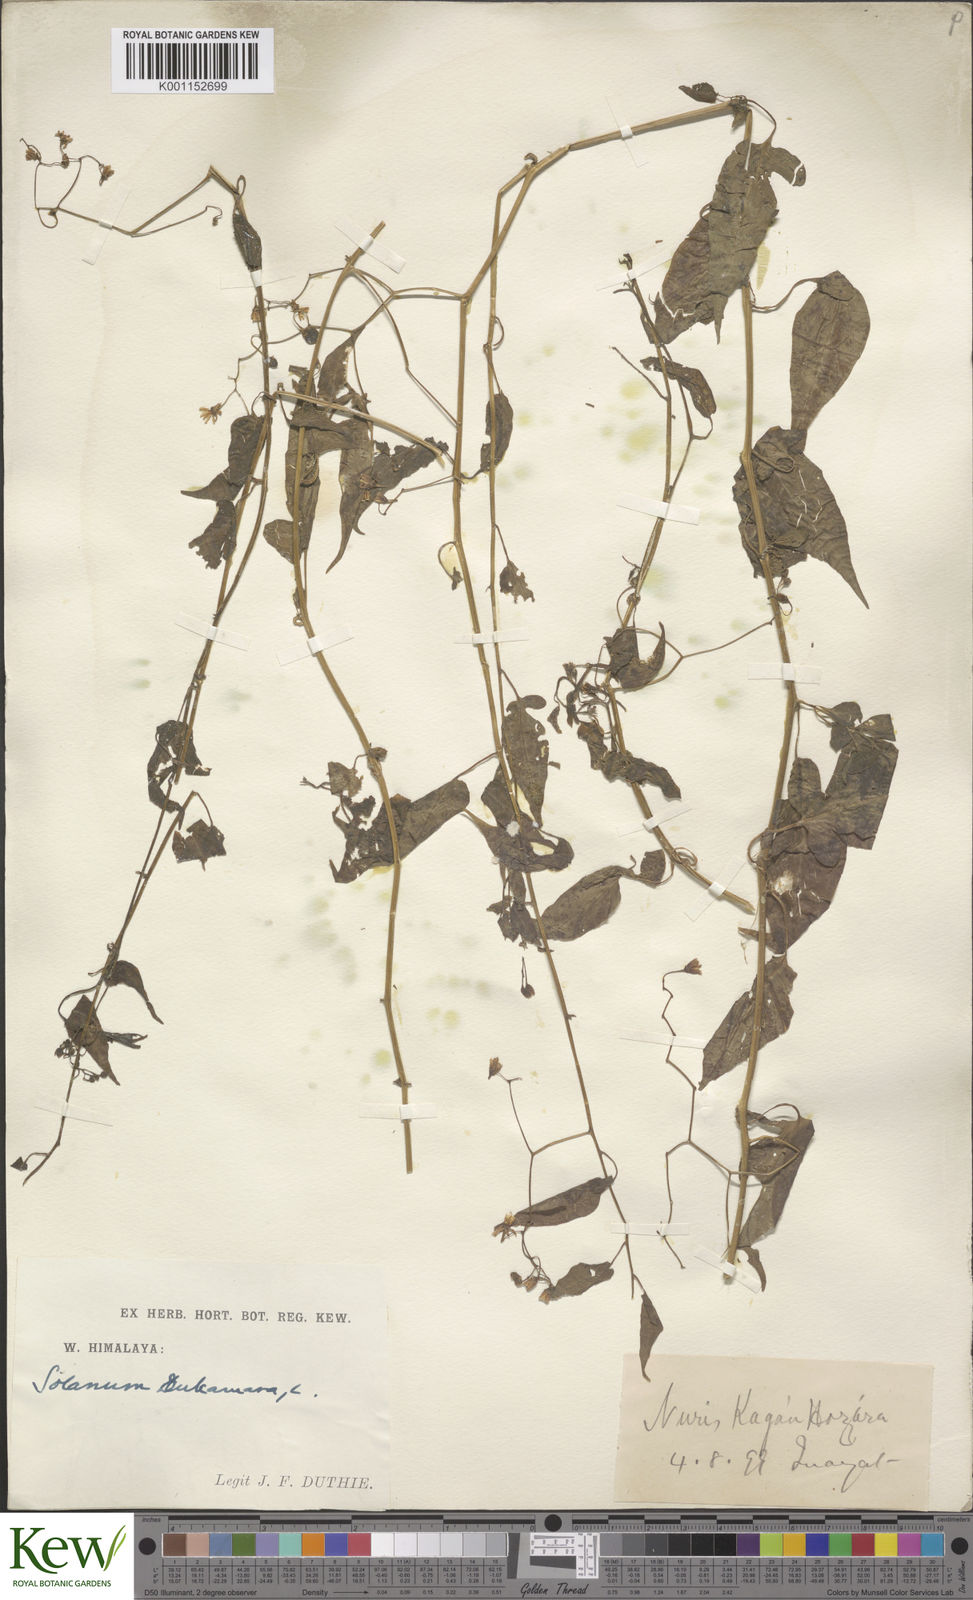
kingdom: Plantae
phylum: Tracheophyta
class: Magnoliopsida
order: Solanales
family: Solanaceae
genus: Solanum
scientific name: Solanum dulcamara
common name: Climbing nightshade
